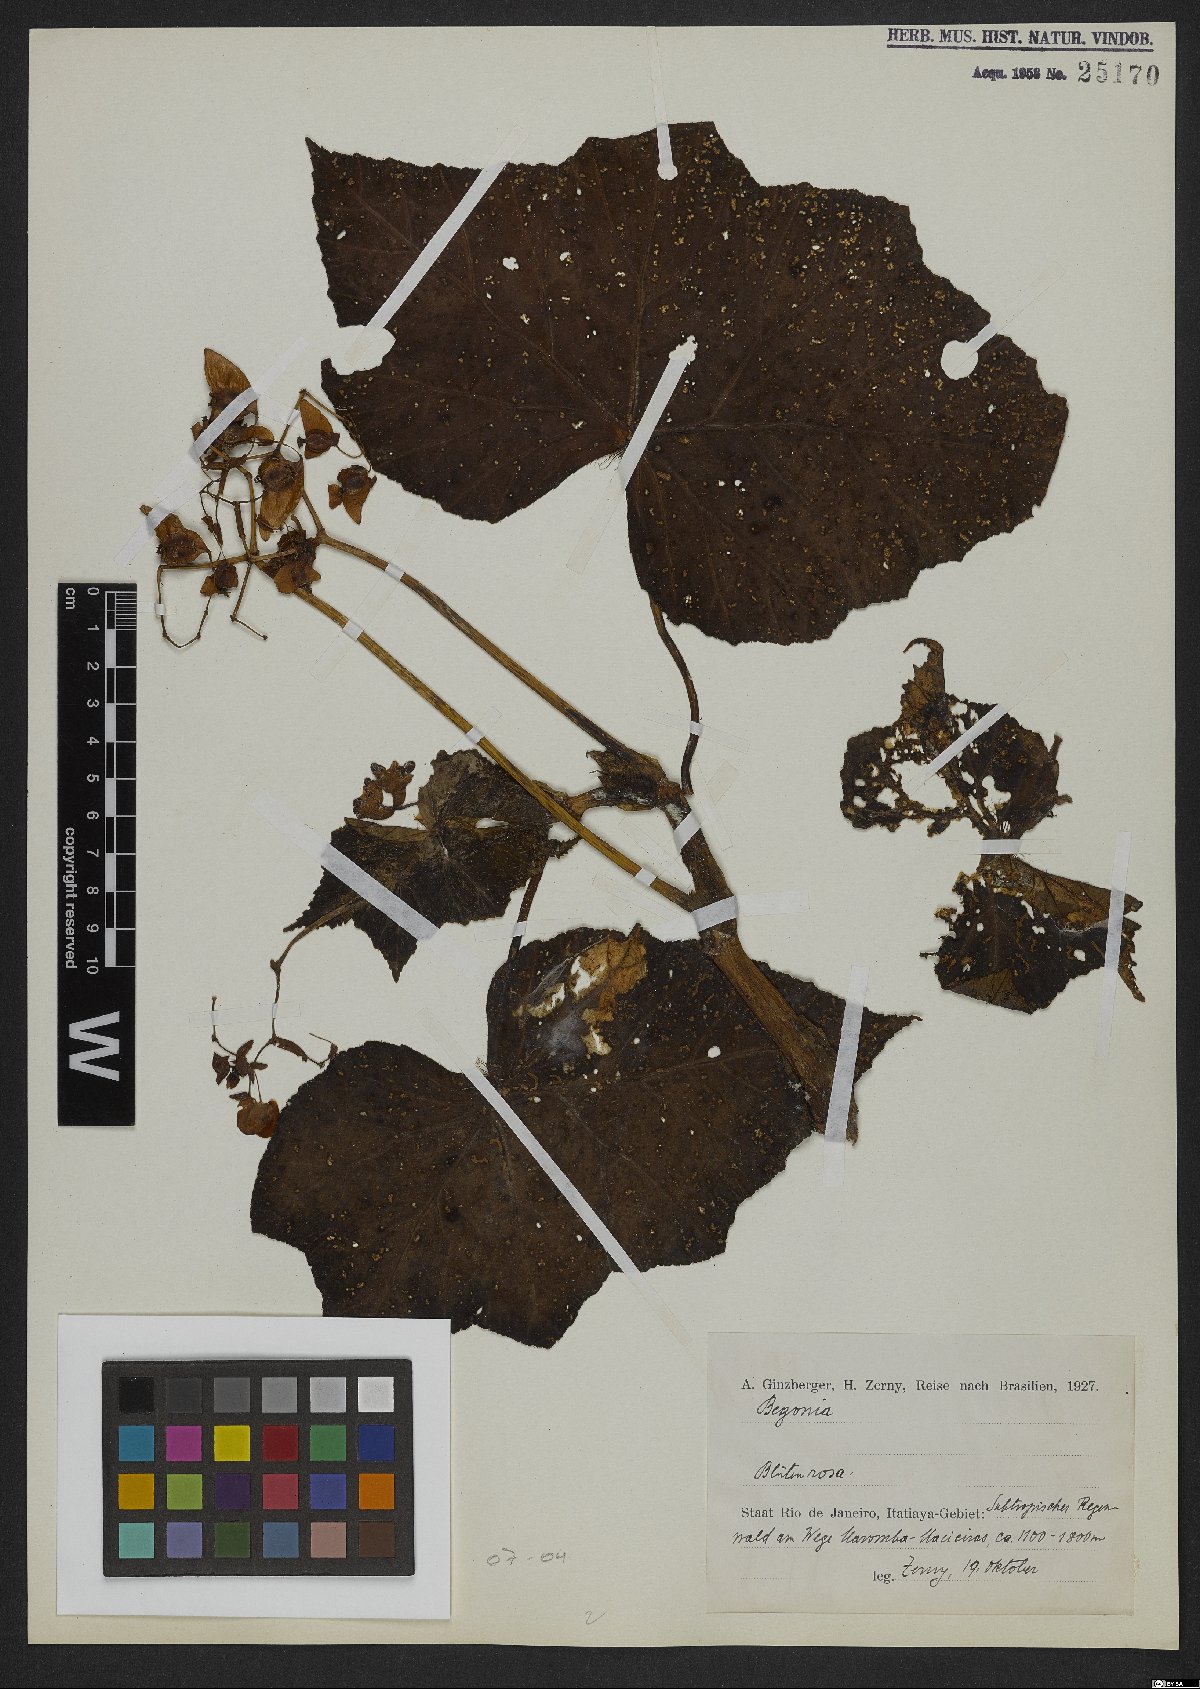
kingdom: Plantae
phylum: Tracheophyta
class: Magnoliopsida
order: Cucurbitales
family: Begoniaceae
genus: Begonia
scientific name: Begonia
